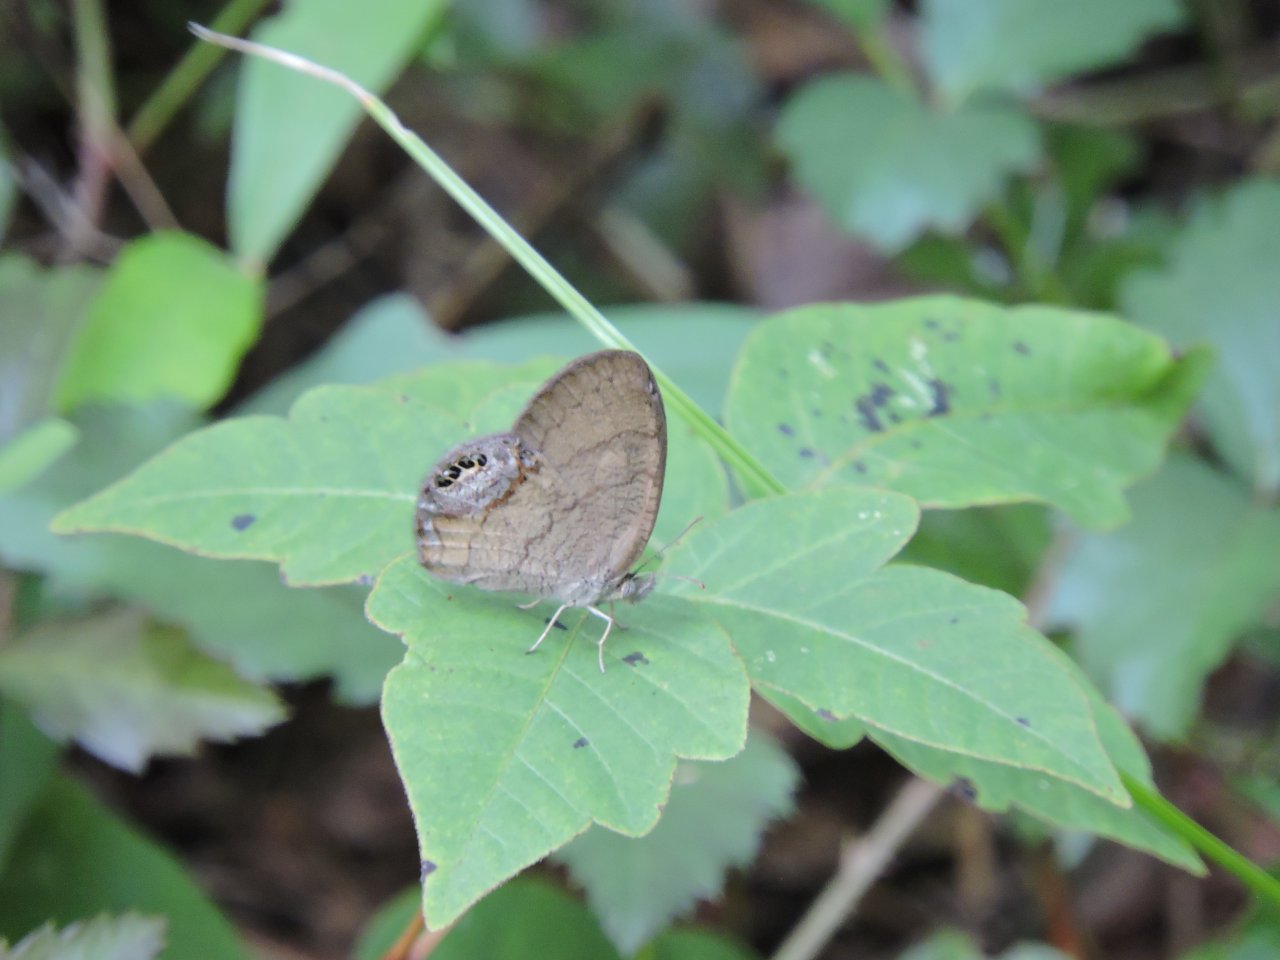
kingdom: Animalia
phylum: Arthropoda
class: Insecta
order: Lepidoptera
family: Nymphalidae
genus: Euptychia
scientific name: Euptychia cornelius
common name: Gemmed Satyr
